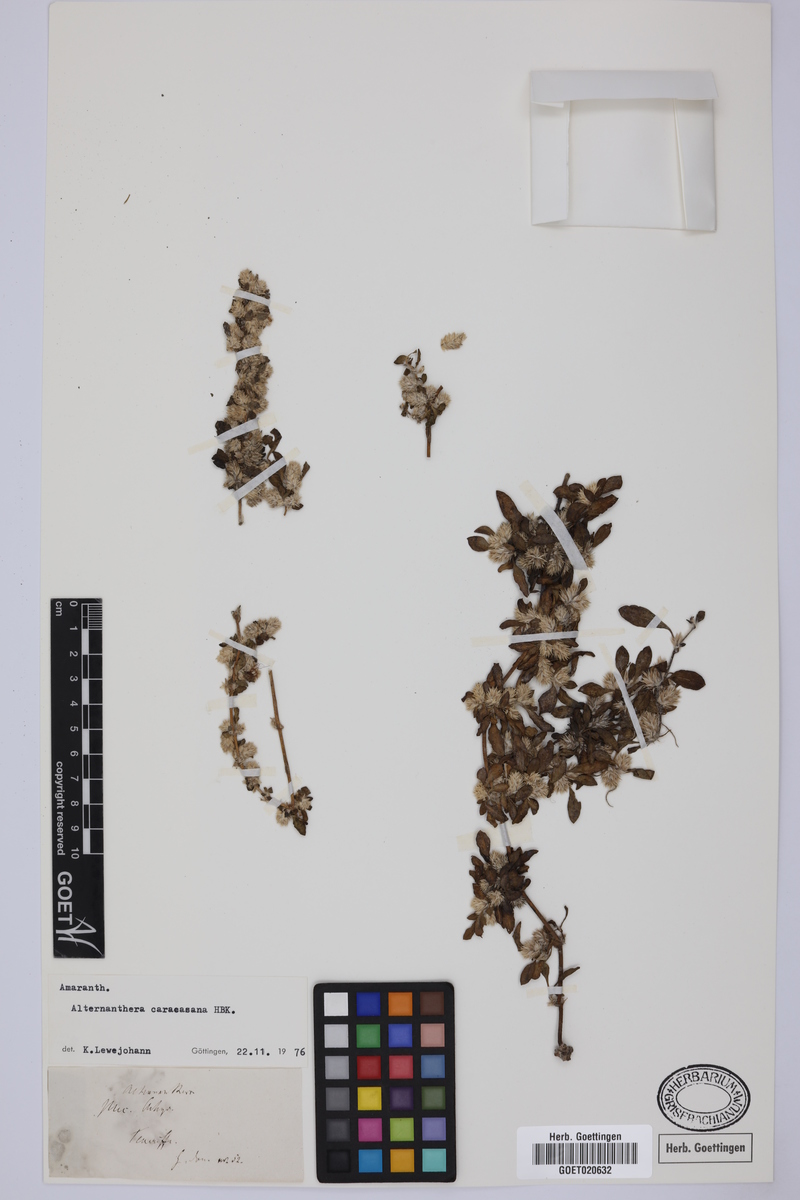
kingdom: Plantae
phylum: Tracheophyta
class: Magnoliopsida
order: Caryophyllales
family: Amaranthaceae
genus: Alternanthera
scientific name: Alternanthera caracasana
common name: Washerwoman
